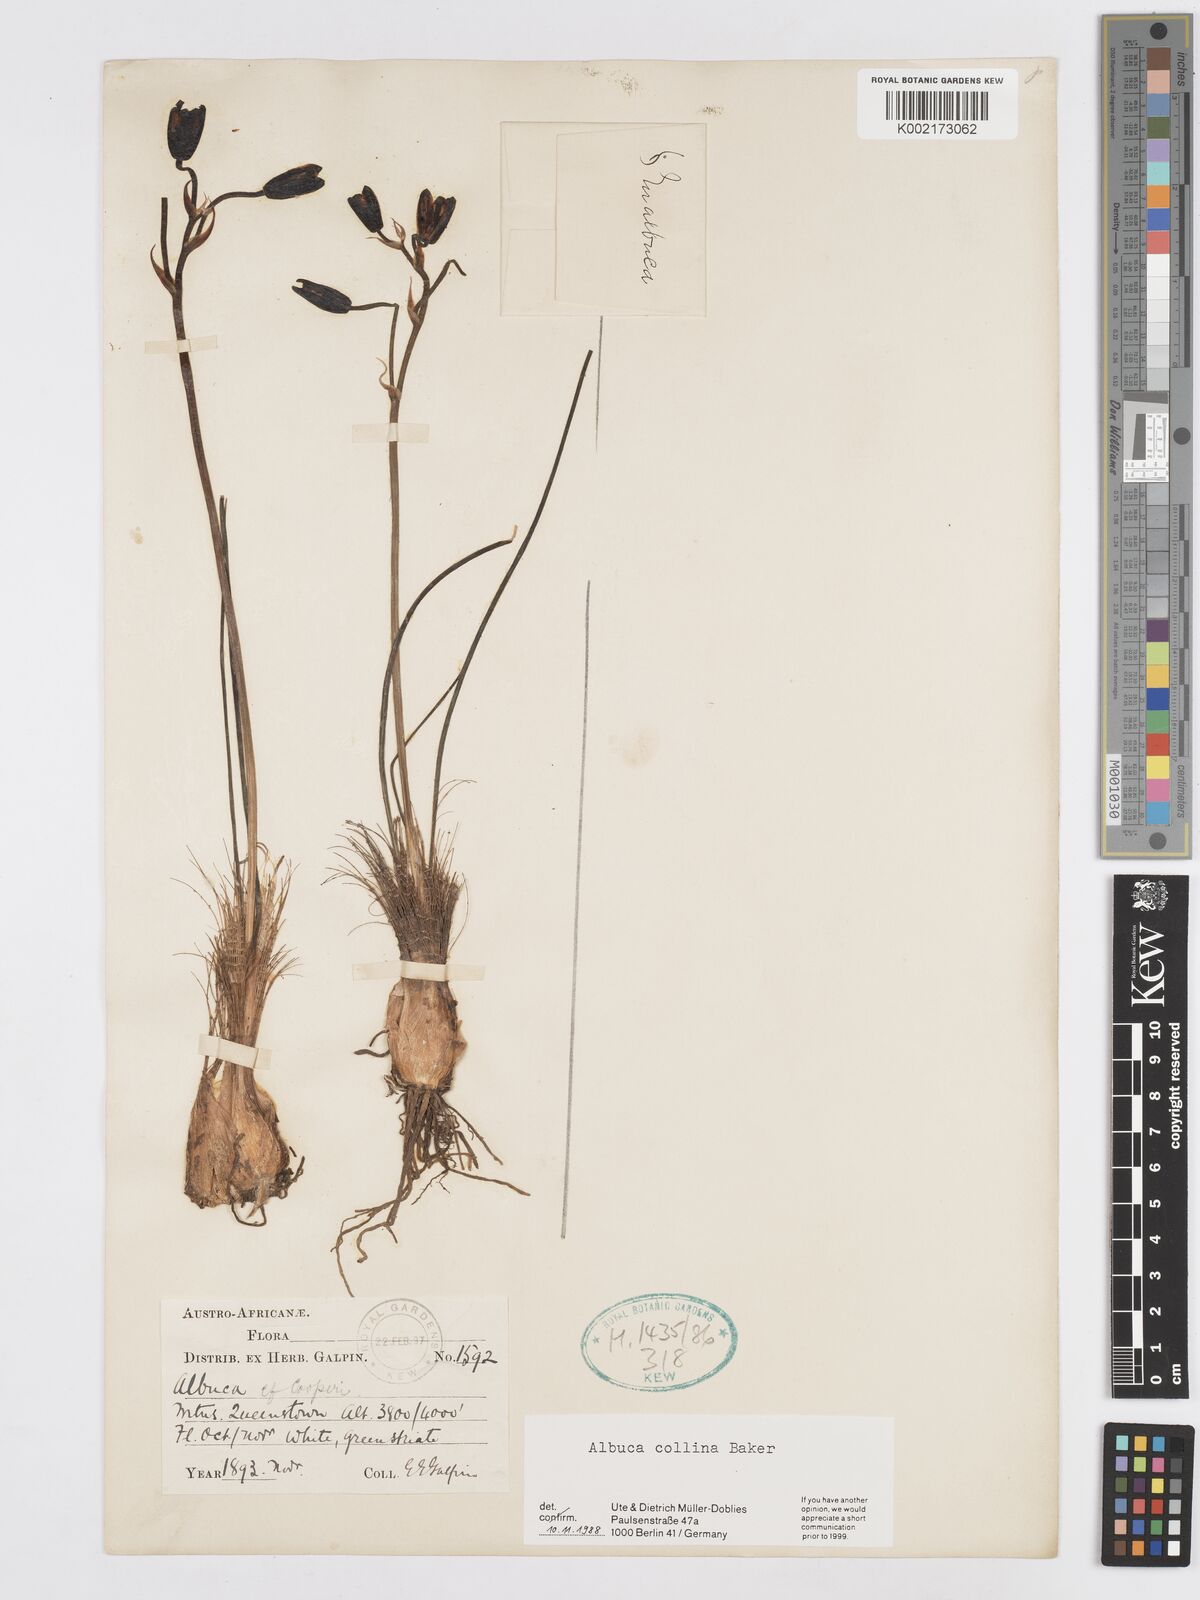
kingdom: Plantae
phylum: Tracheophyta
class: Liliopsida
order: Asparagales
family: Asparagaceae
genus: Albuca
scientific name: Albuca collina
